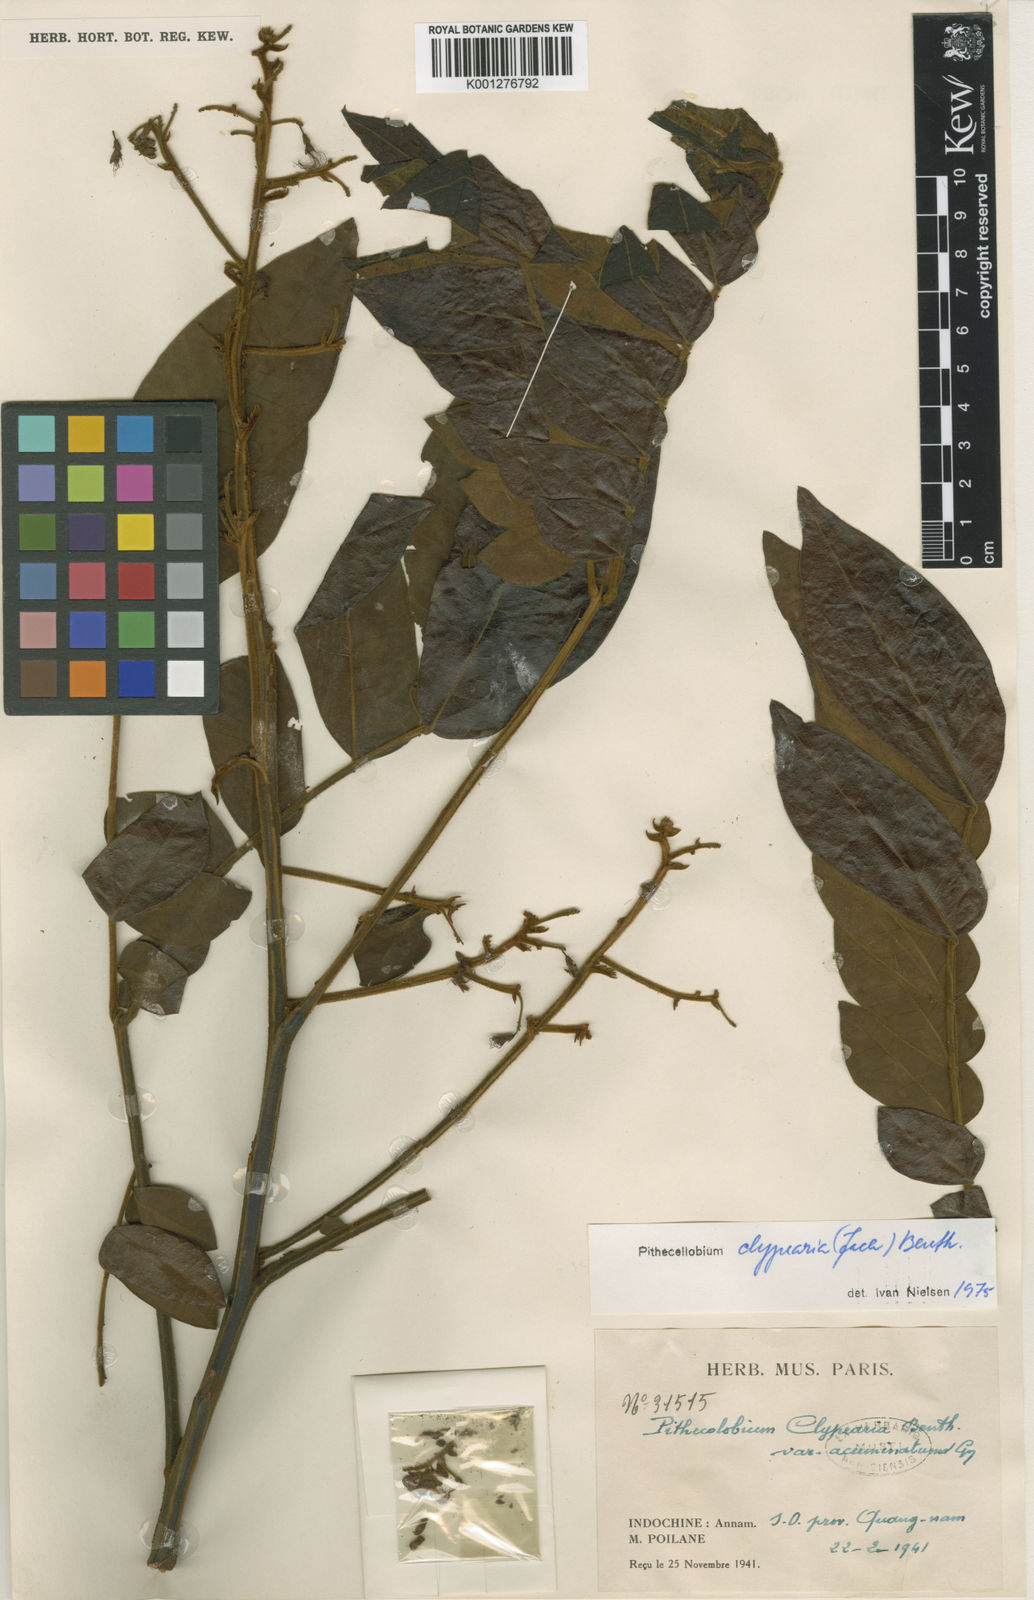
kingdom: Plantae
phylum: Tracheophyta
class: Magnoliopsida
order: Fabales
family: Fabaceae
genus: Archidendron
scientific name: Archidendron clypearia
